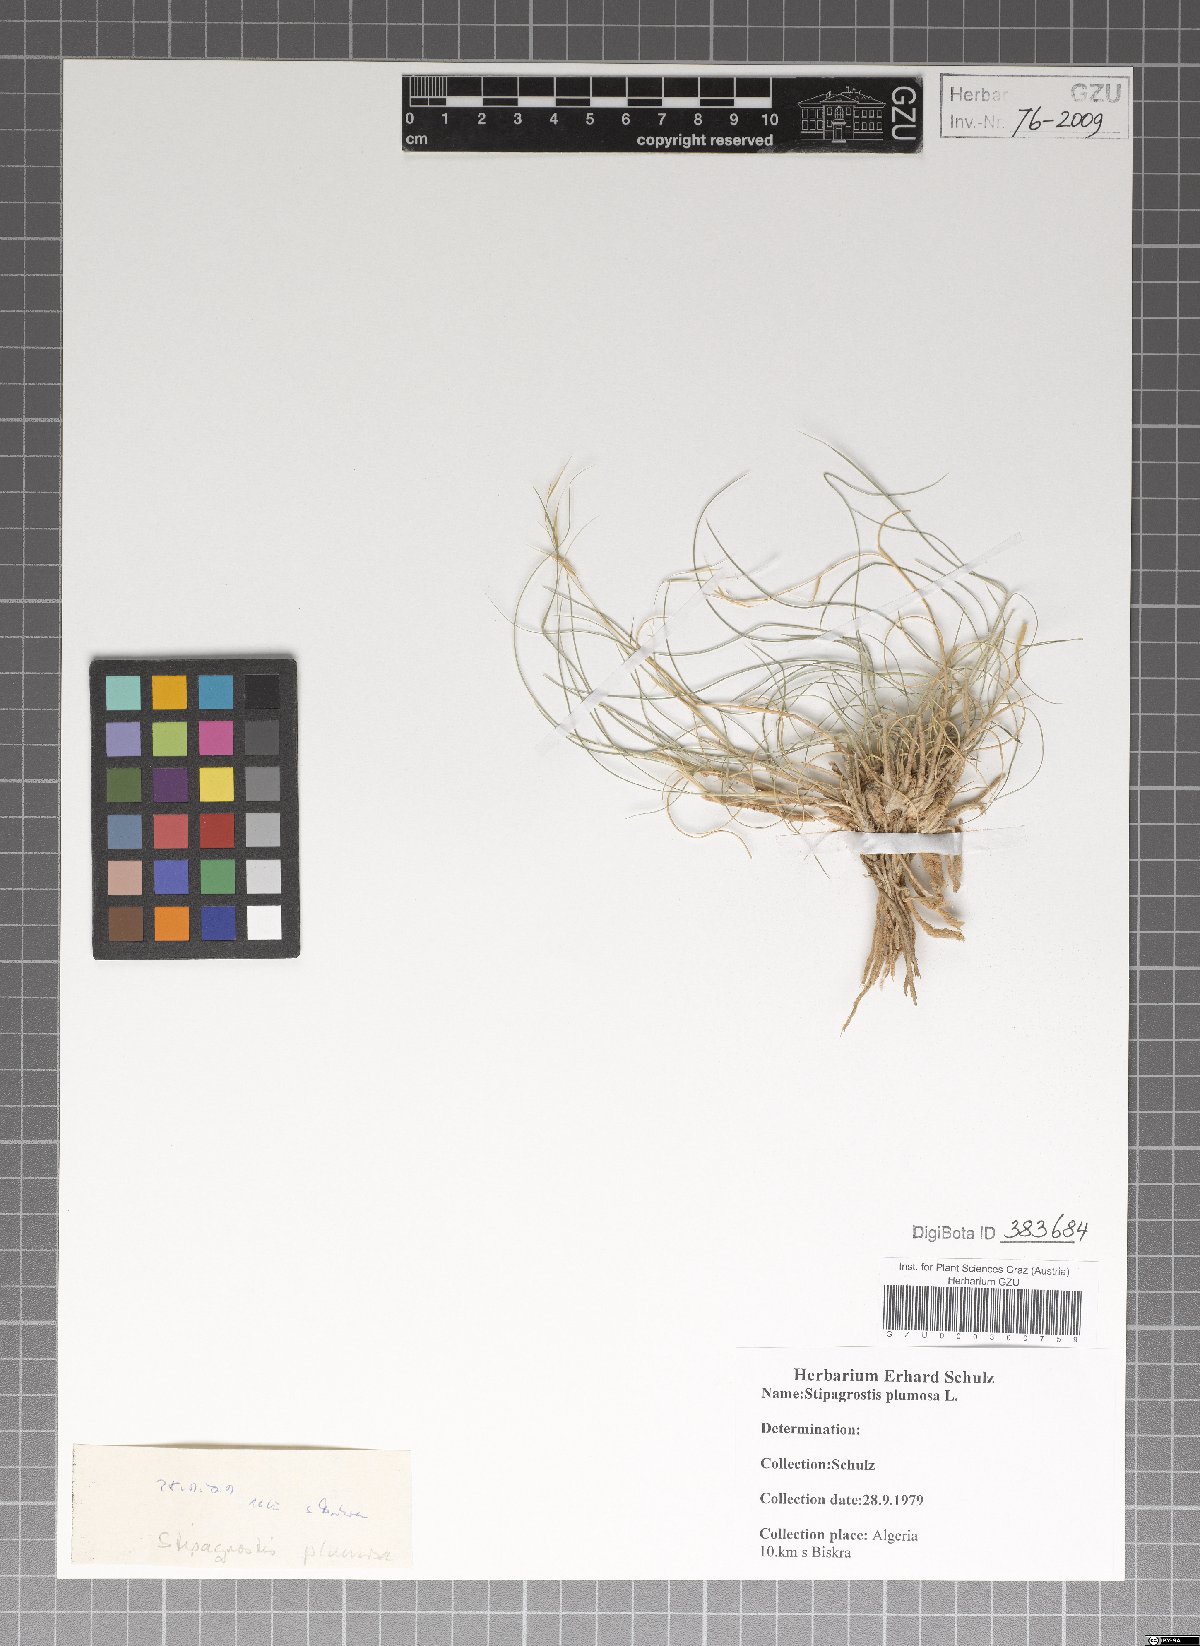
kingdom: Plantae
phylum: Tracheophyta
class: Liliopsida
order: Poales
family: Poaceae
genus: Stipagrostis
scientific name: Stipagrostis plumosa
